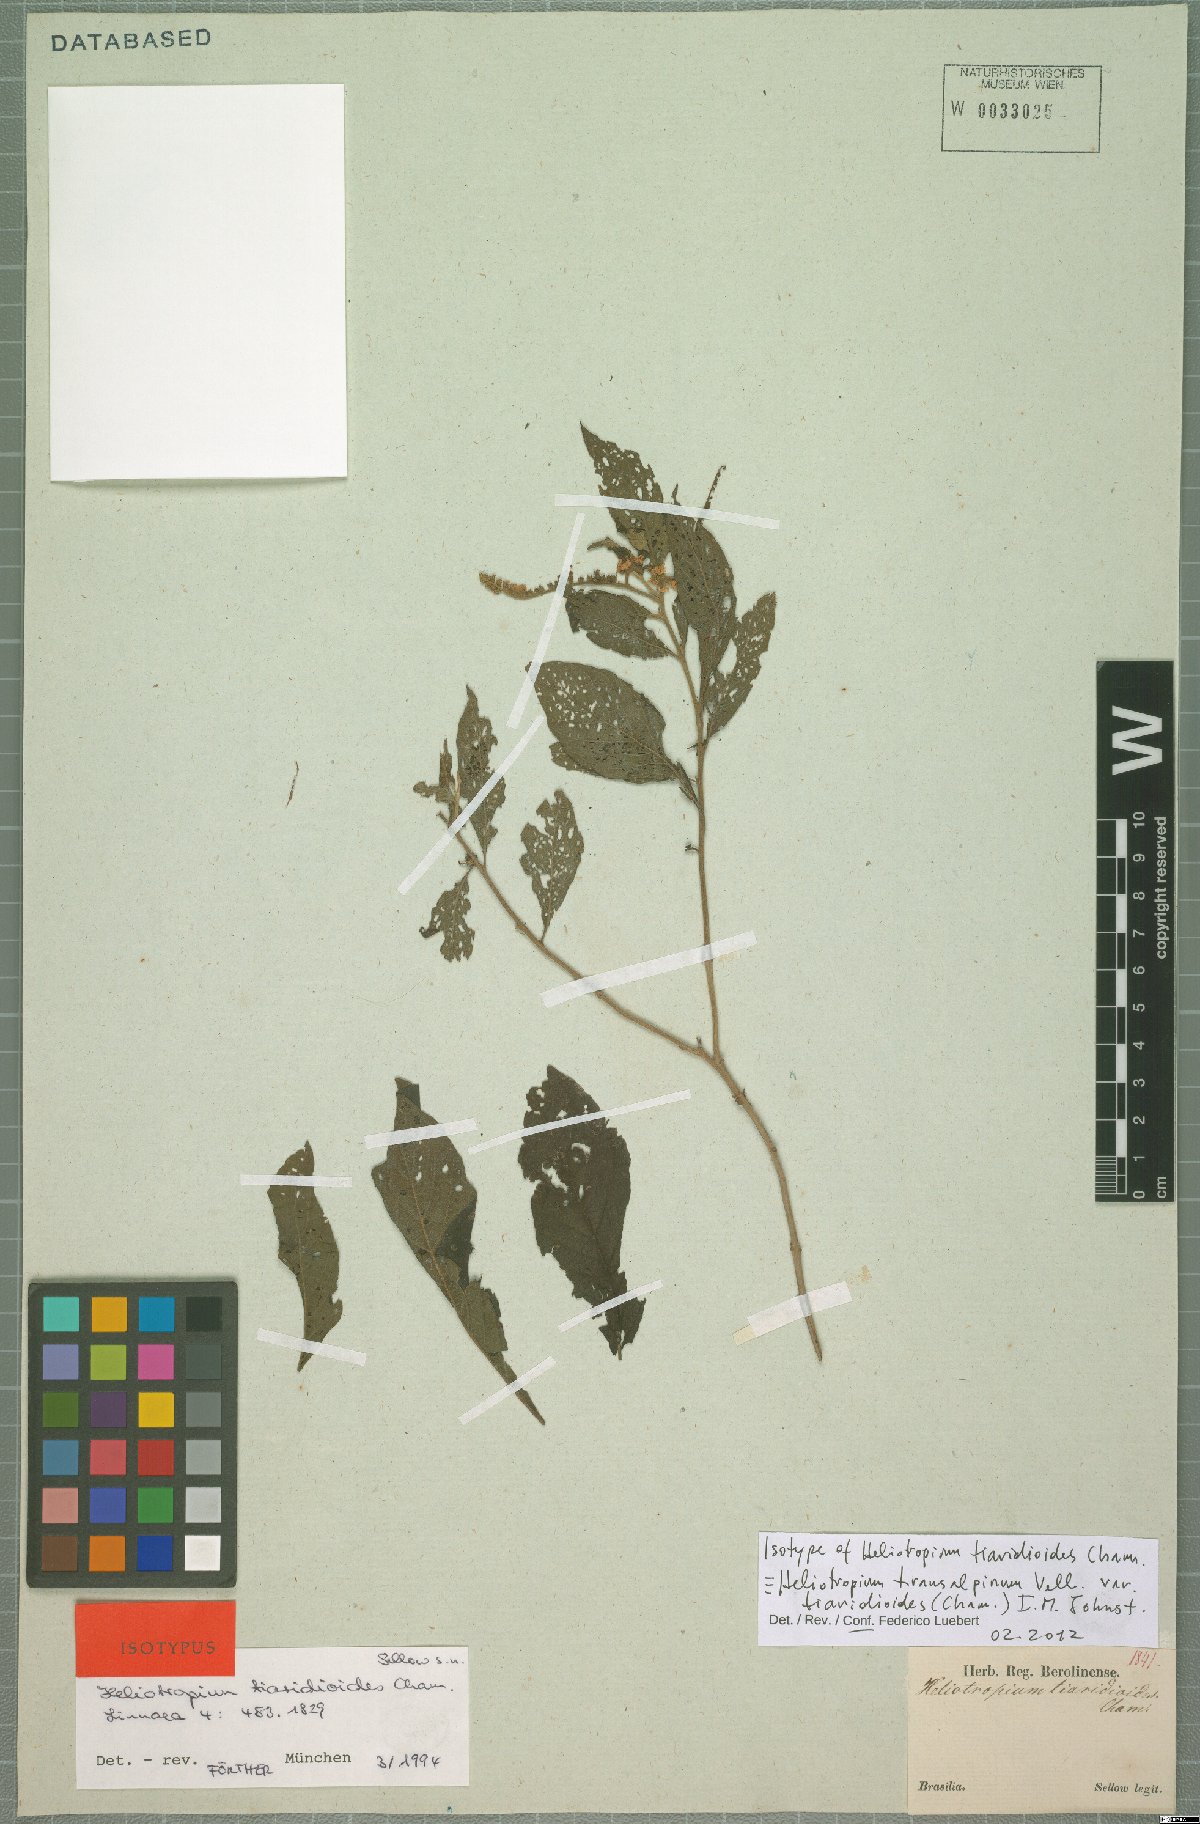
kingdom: Plantae
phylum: Tracheophyta
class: Magnoliopsida
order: Boraginales
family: Heliotropiaceae
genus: Heliotropium
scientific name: Heliotropium tiaridioides
